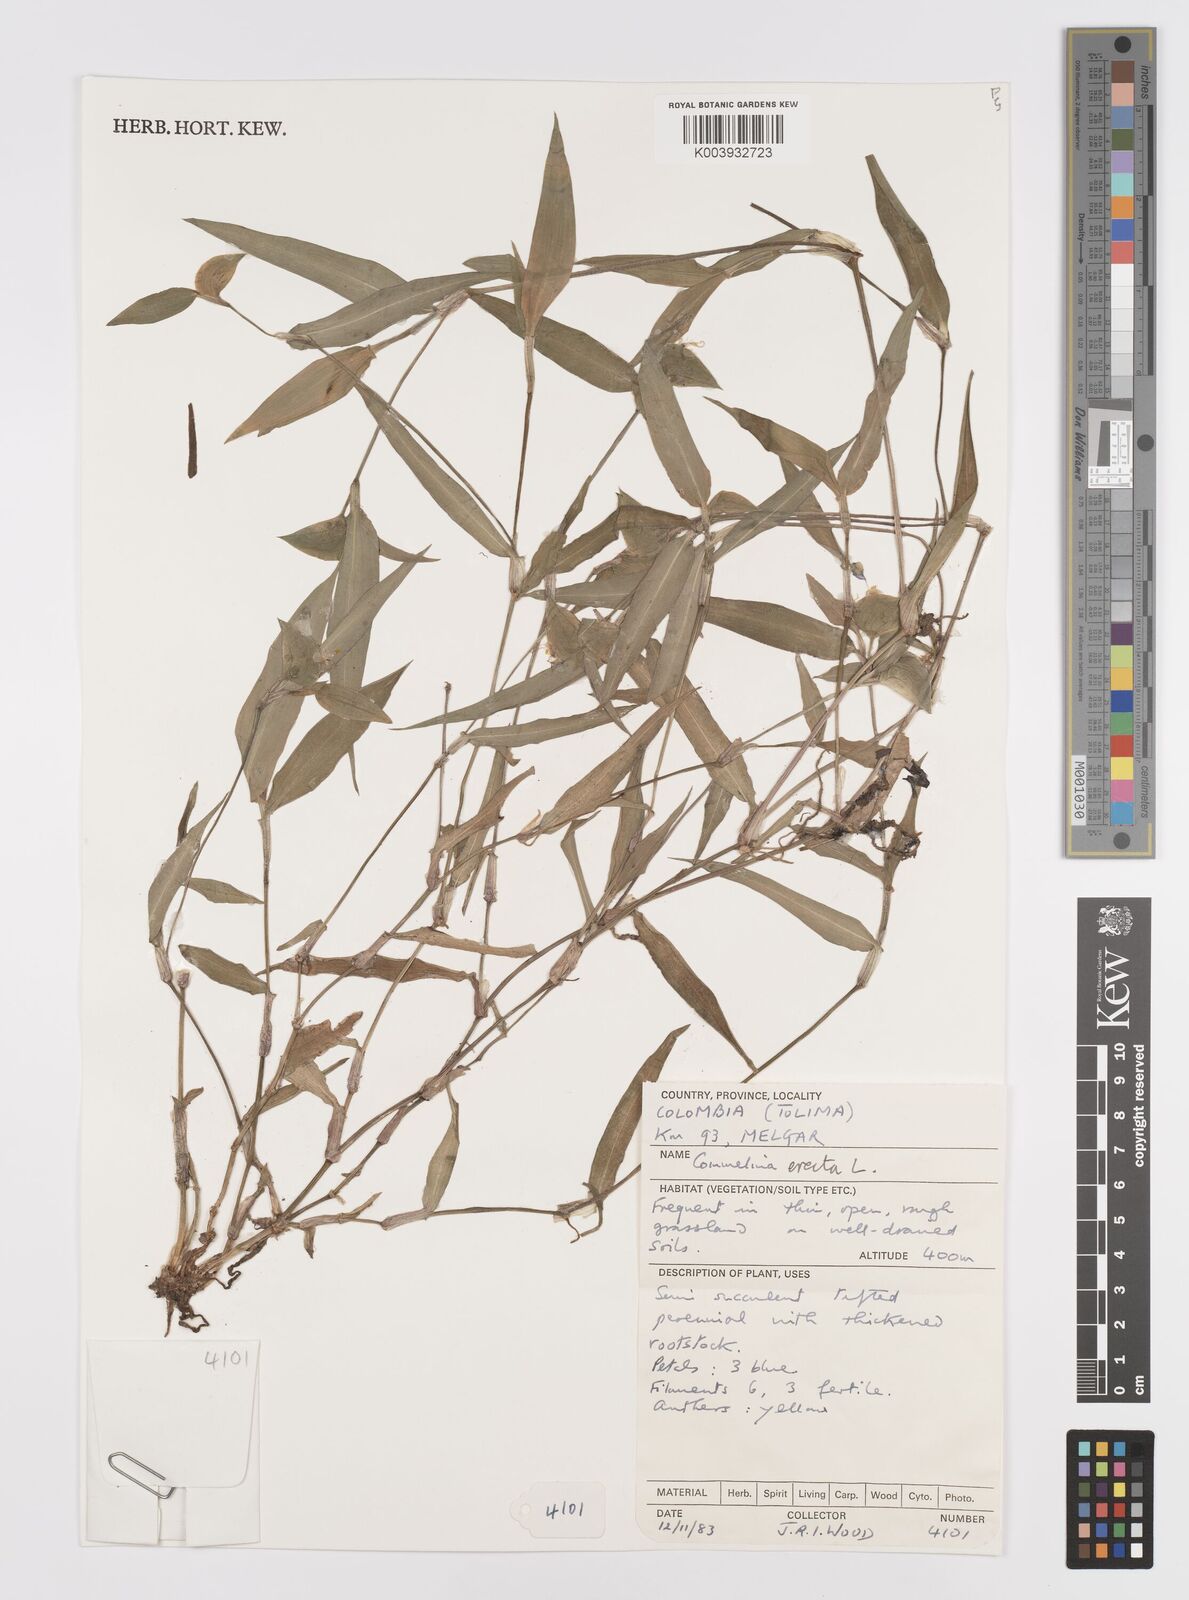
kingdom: Plantae
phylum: Tracheophyta
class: Liliopsida
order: Commelinales
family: Commelinaceae
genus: Commelina
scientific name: Commelina erecta
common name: Blousel blommetjie
